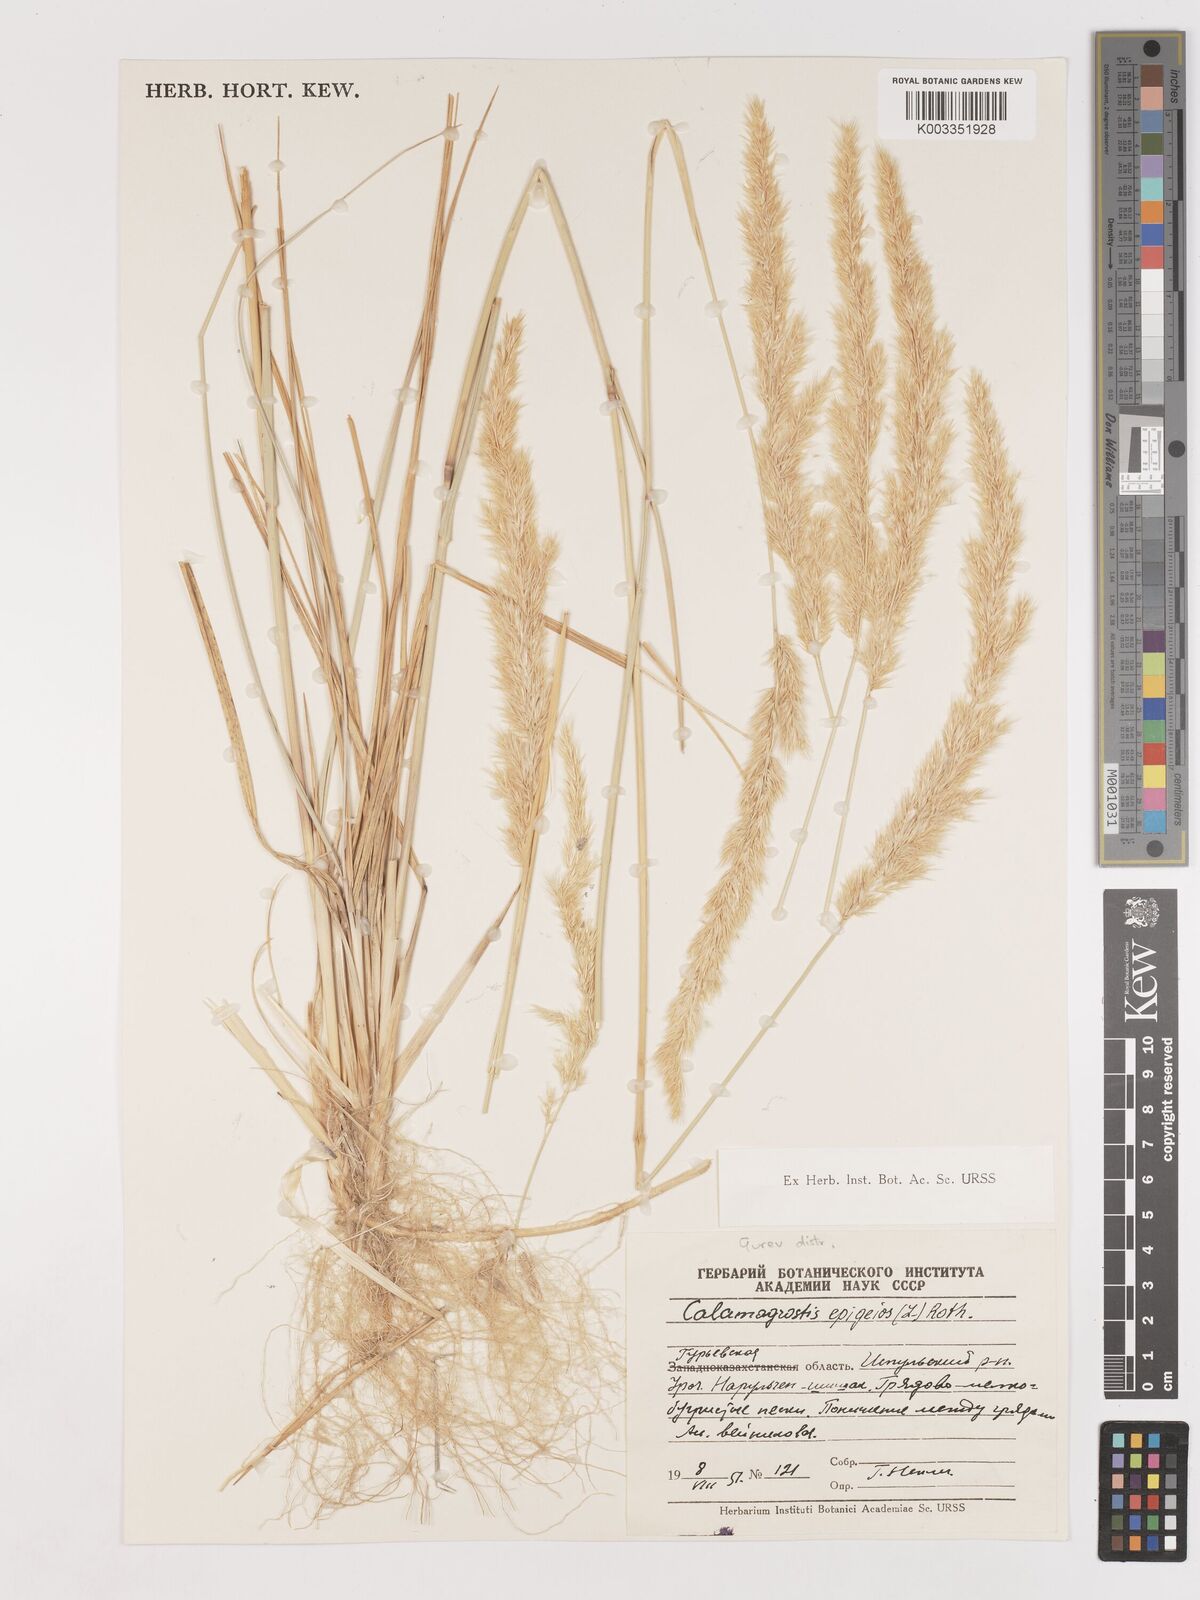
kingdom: Plantae
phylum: Tracheophyta
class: Liliopsida
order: Poales
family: Poaceae
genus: Calamagrostis
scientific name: Calamagrostis epigejos
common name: Wood small-reed
